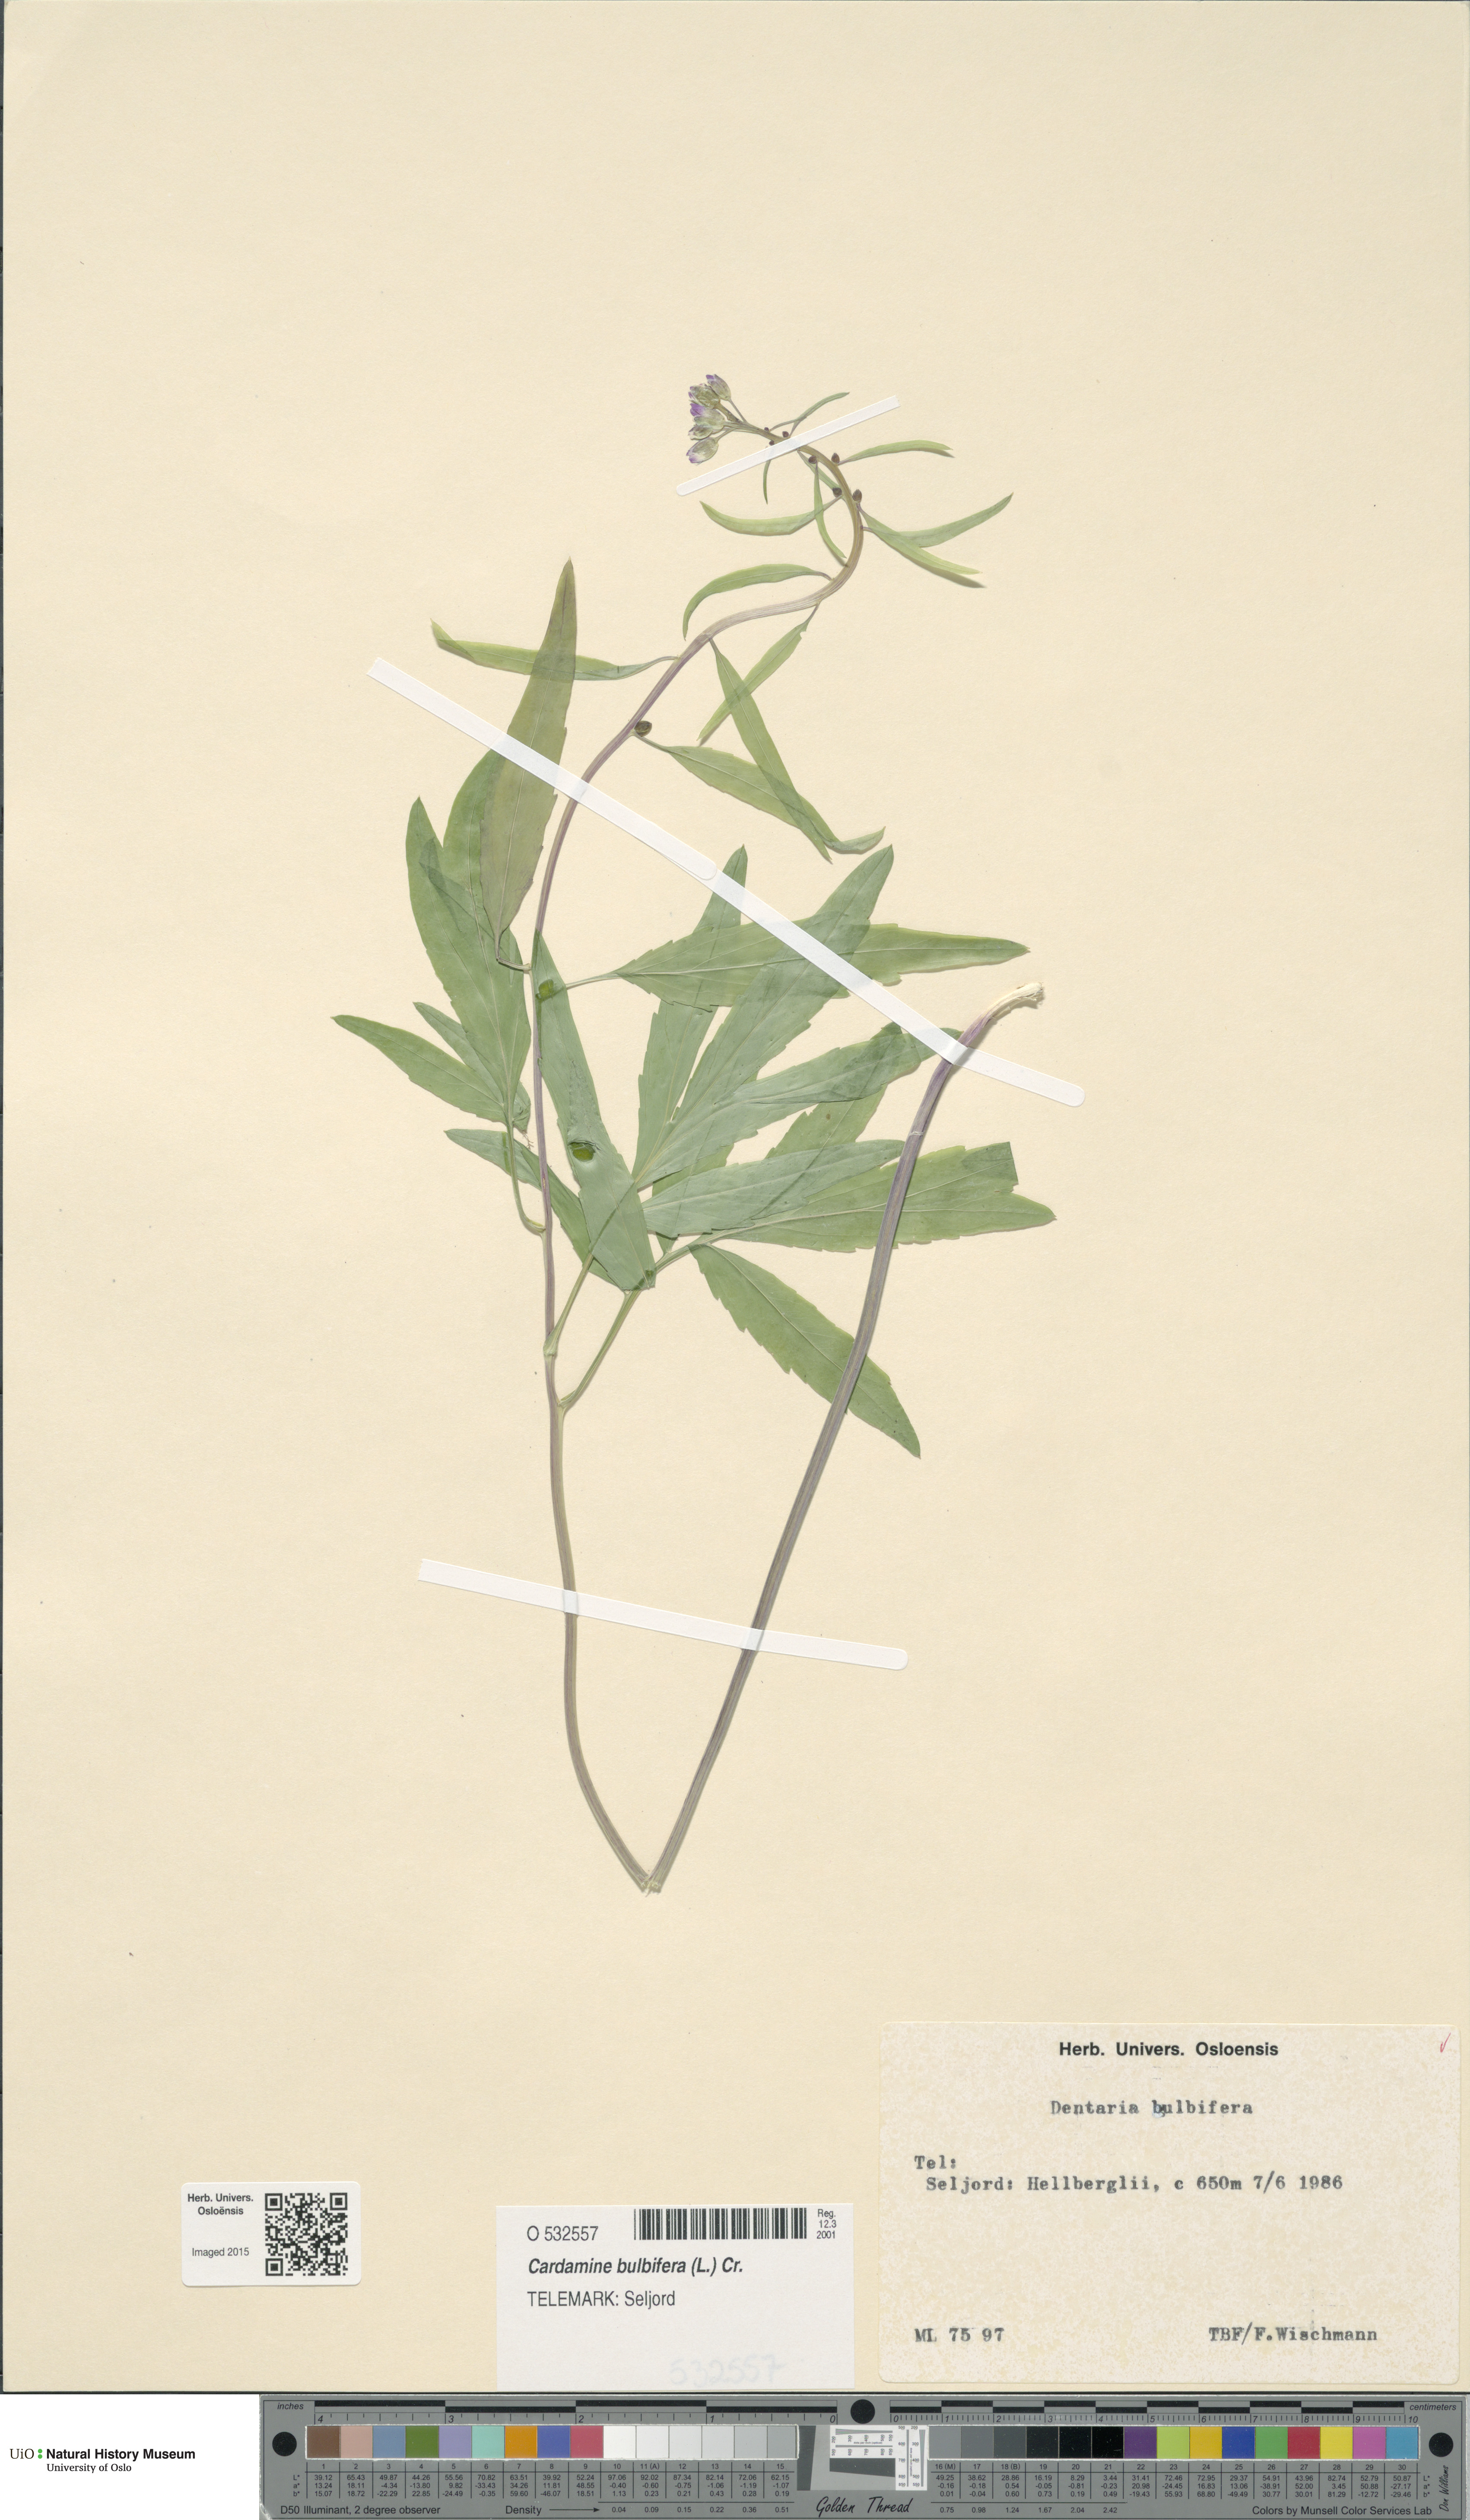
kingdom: Plantae
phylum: Tracheophyta
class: Magnoliopsida
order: Brassicales
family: Brassicaceae
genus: Cardamine
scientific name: Cardamine bulbifera
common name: Coralroot bittercress
